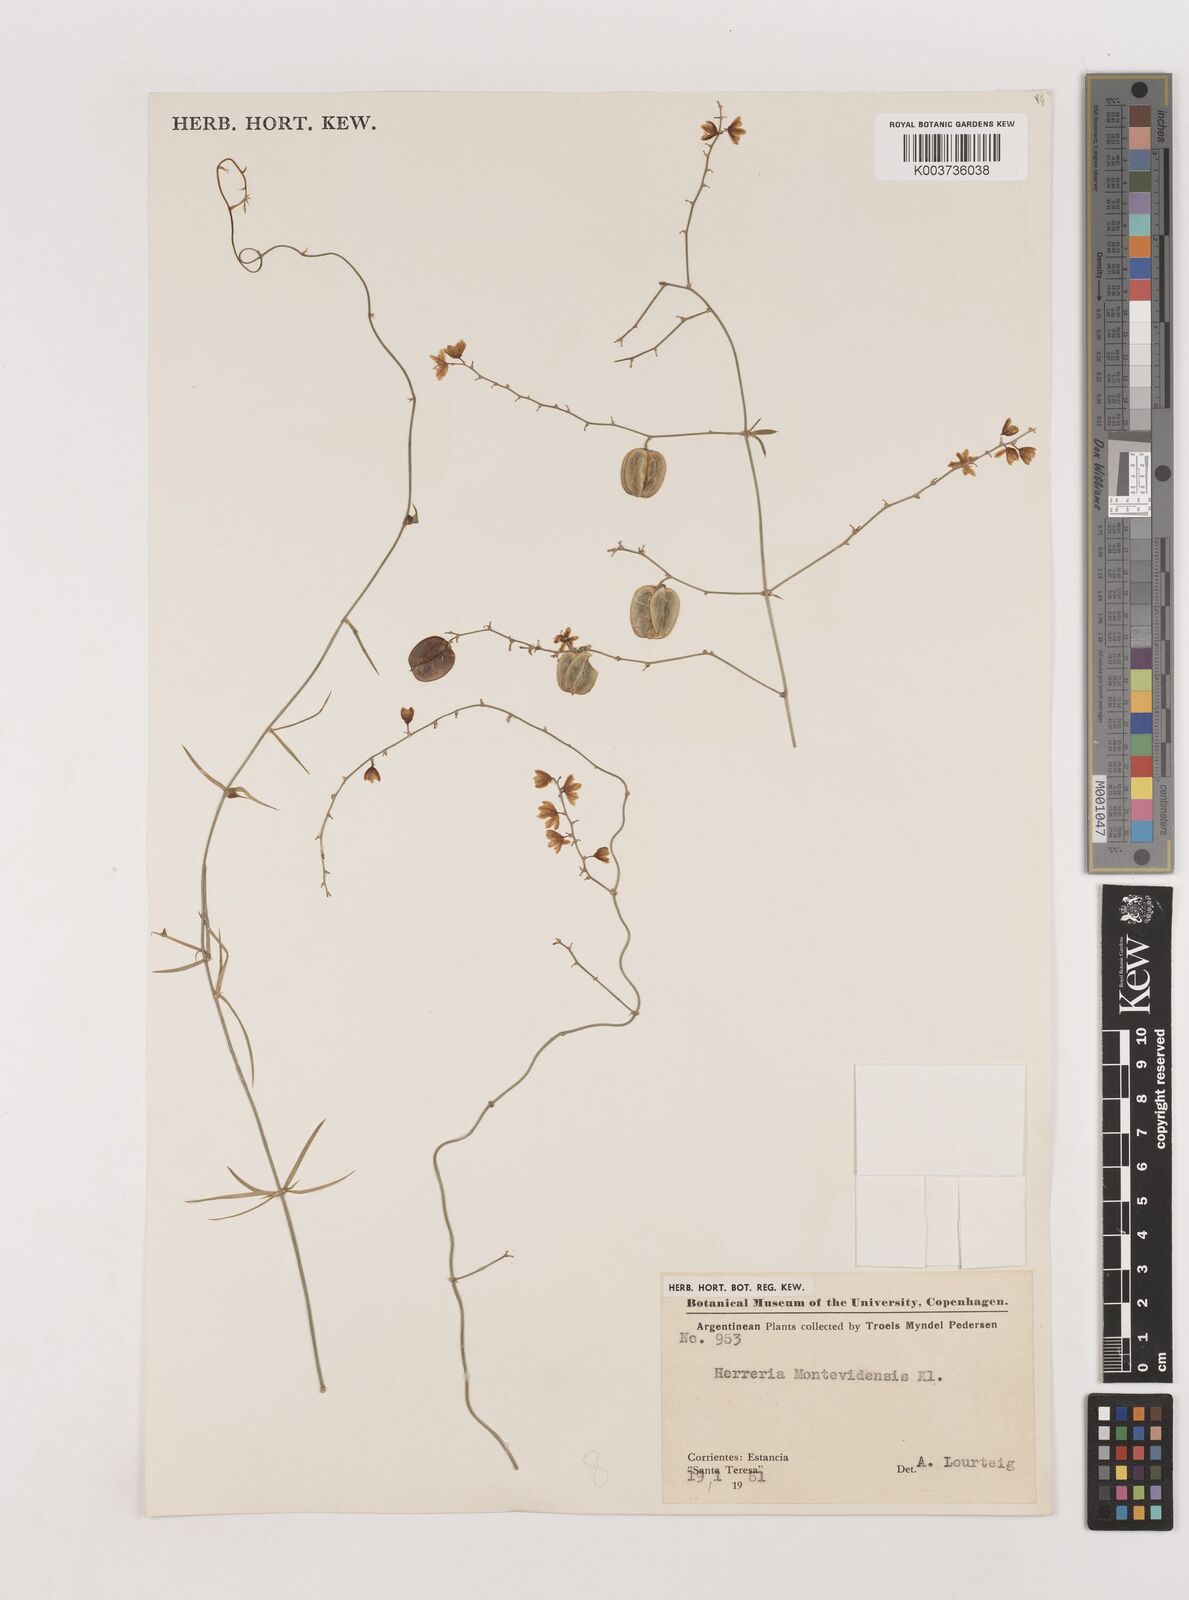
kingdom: Plantae
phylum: Tracheophyta
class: Liliopsida
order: Asparagales
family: Asparagaceae
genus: Herreria
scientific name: Herreria montevidensis
